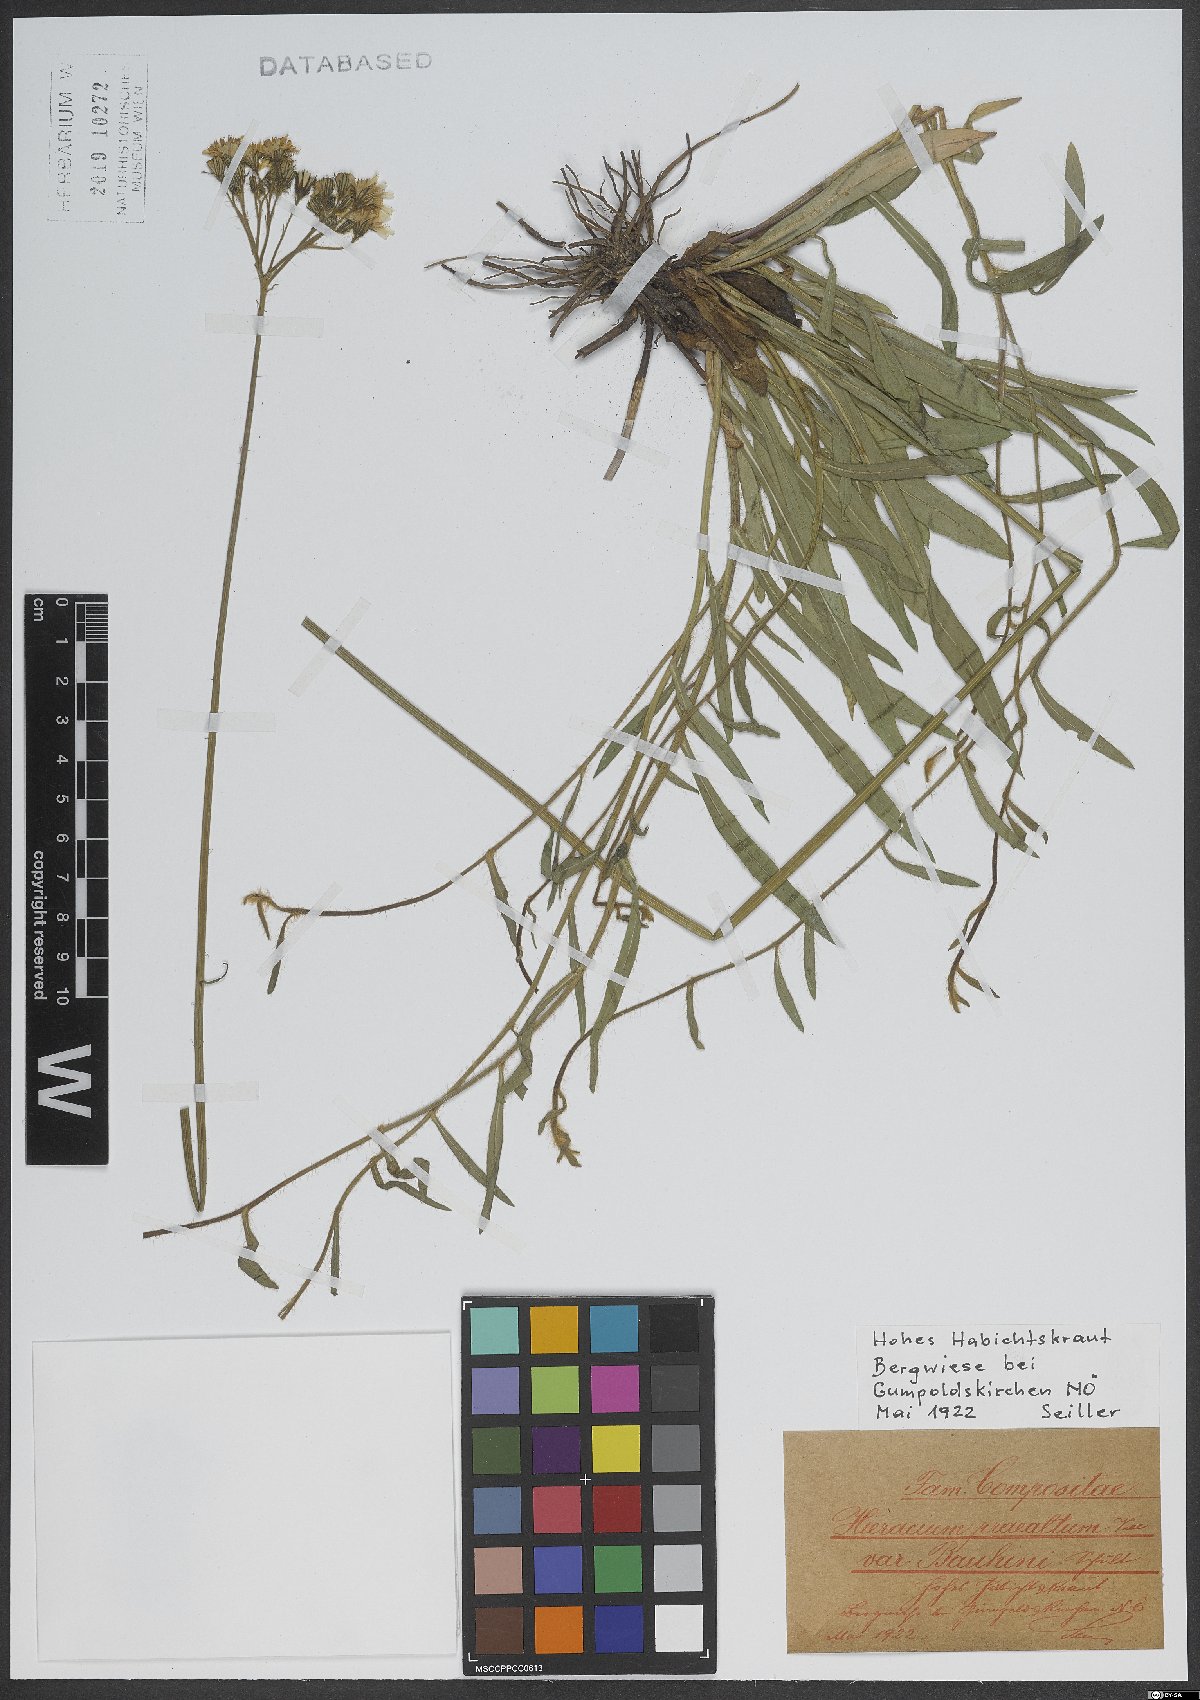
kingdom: Plantae
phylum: Tracheophyta
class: Magnoliopsida
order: Asterales
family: Asteraceae
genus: Pilosella
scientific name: Pilosella bauhini
